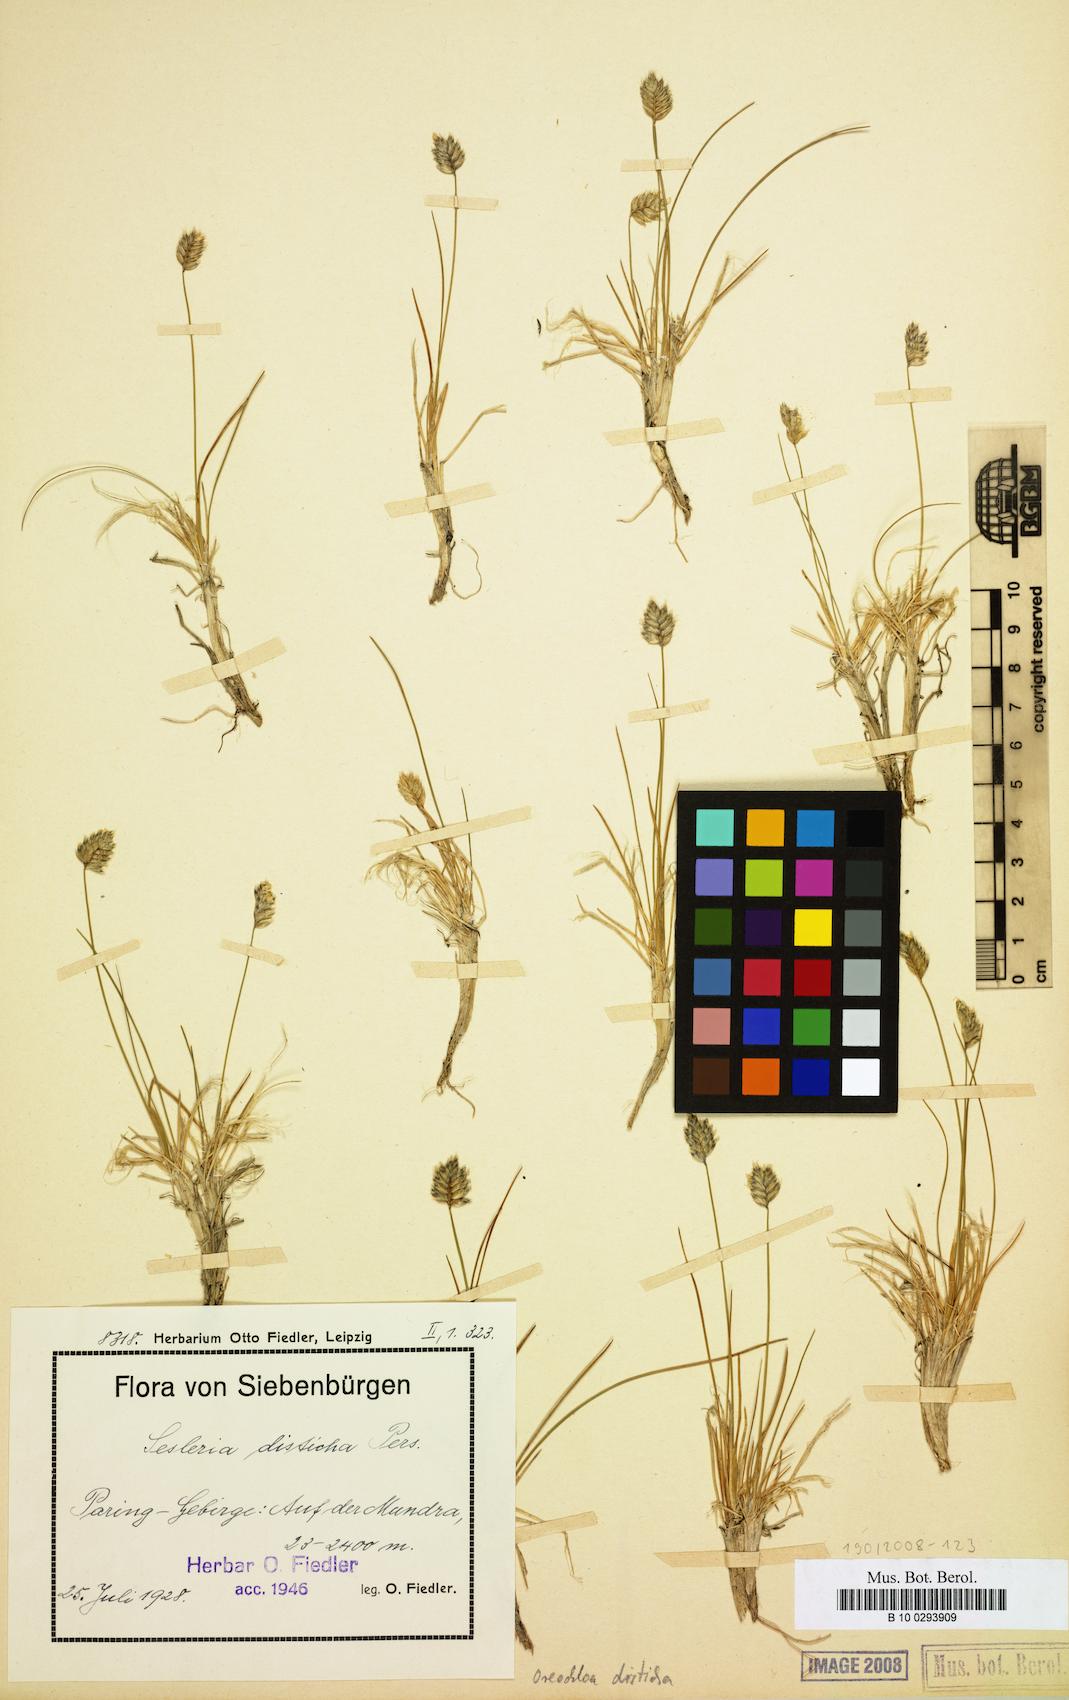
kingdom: Plantae
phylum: Tracheophyta
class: Liliopsida
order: Poales
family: Poaceae
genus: Oreochloa
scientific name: Oreochloa disticha
